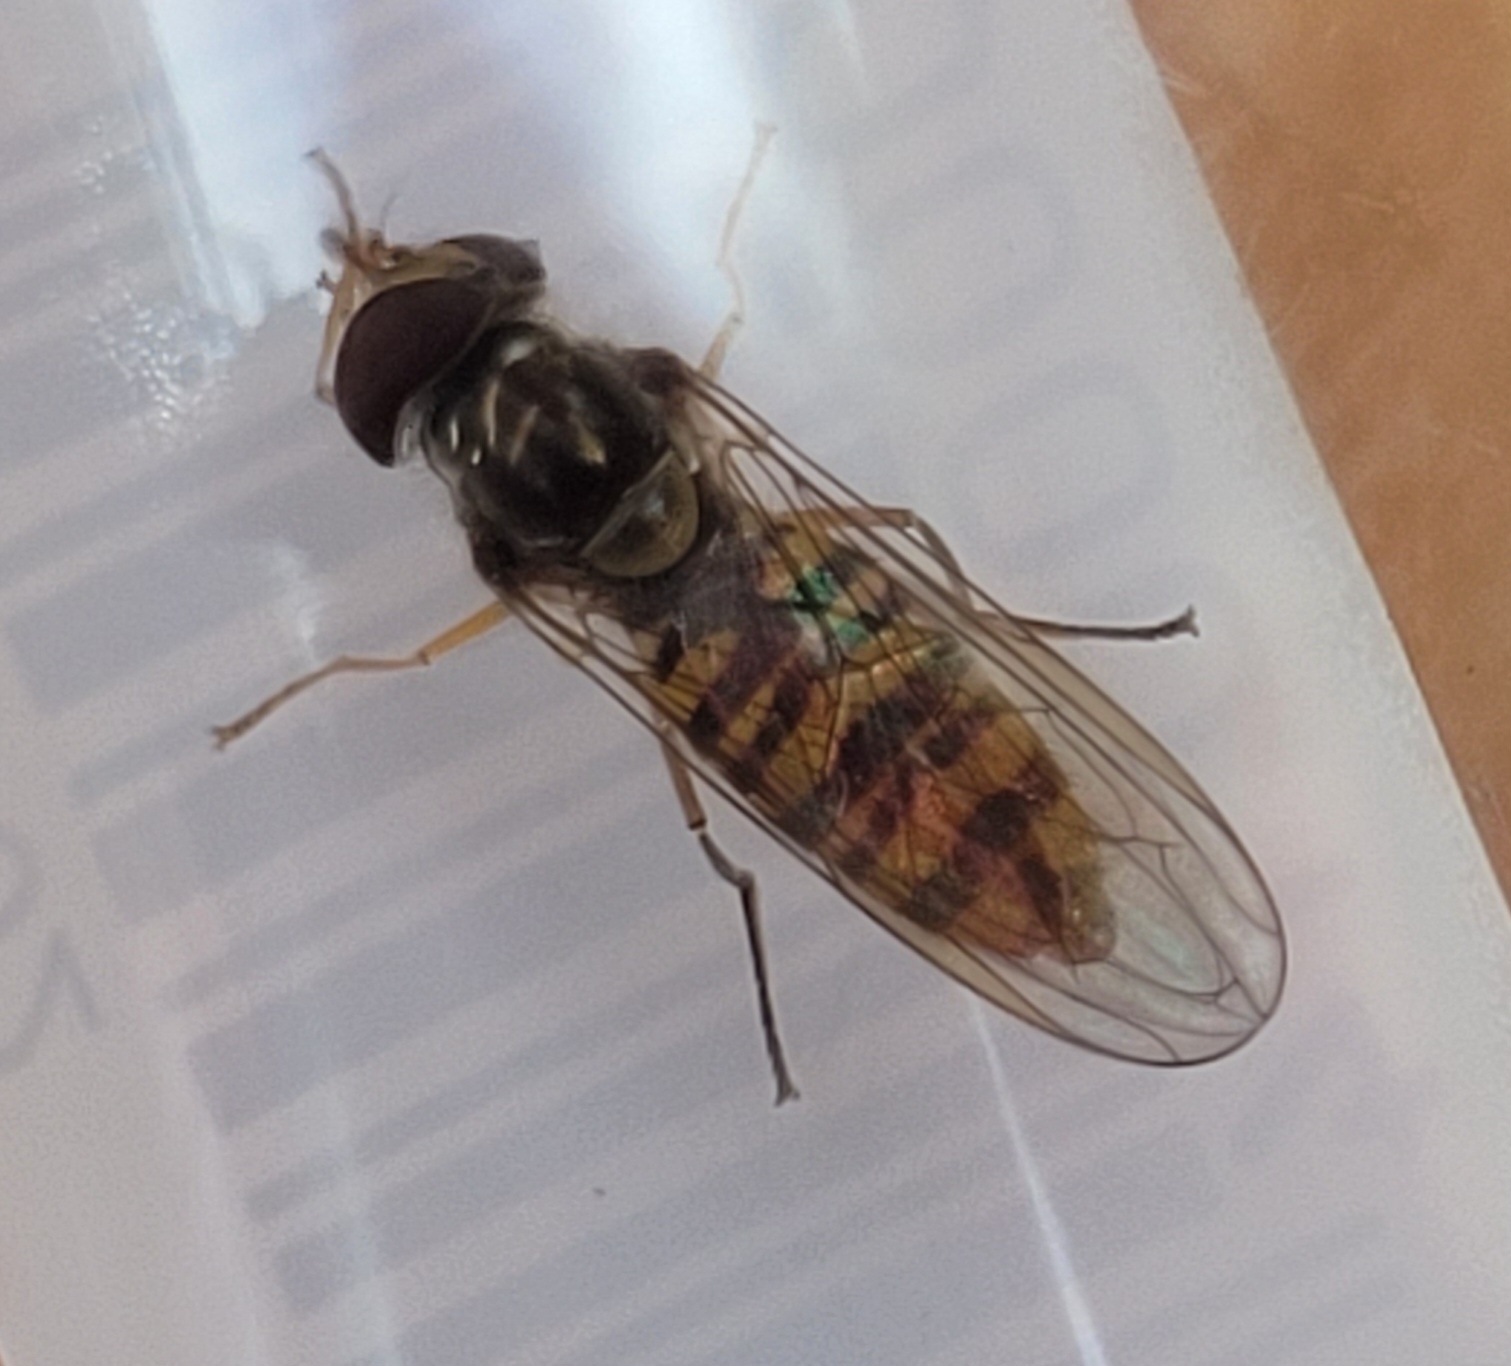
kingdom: Animalia
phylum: Arthropoda
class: Insecta
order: Diptera
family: Syrphidae
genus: Episyrphus
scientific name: Episyrphus balteatus
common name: Dobbeltbåndet svirreflue
